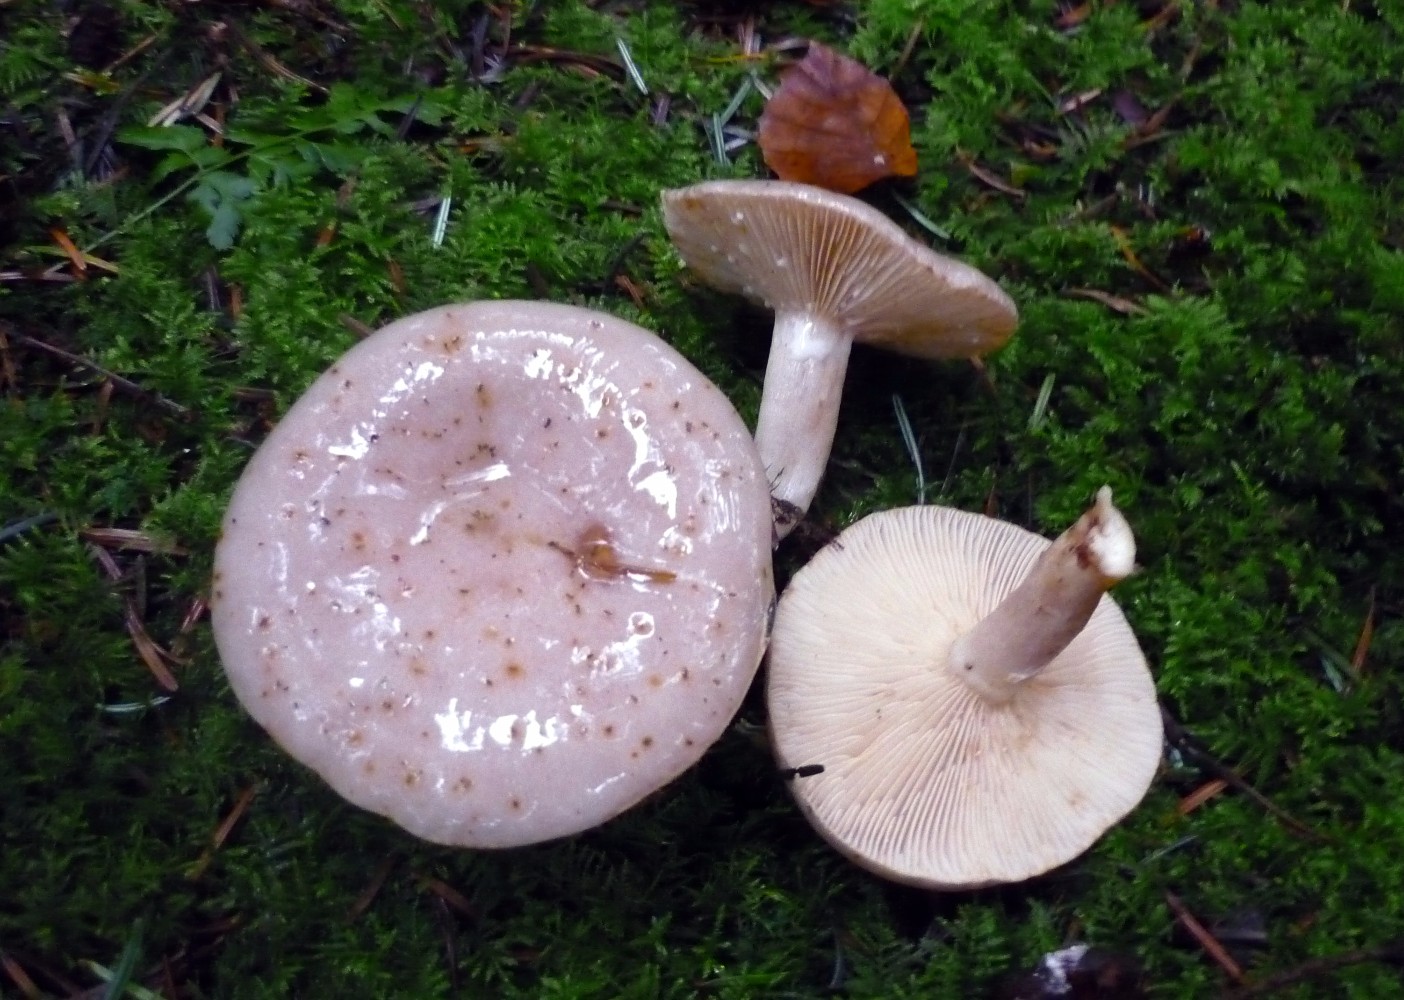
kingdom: Fungi
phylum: Basidiomycota
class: Agaricomycetes
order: Russulales
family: Russulaceae
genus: Lactarius
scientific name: Lactarius albocarneus
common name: ædelgran-mælkehat
